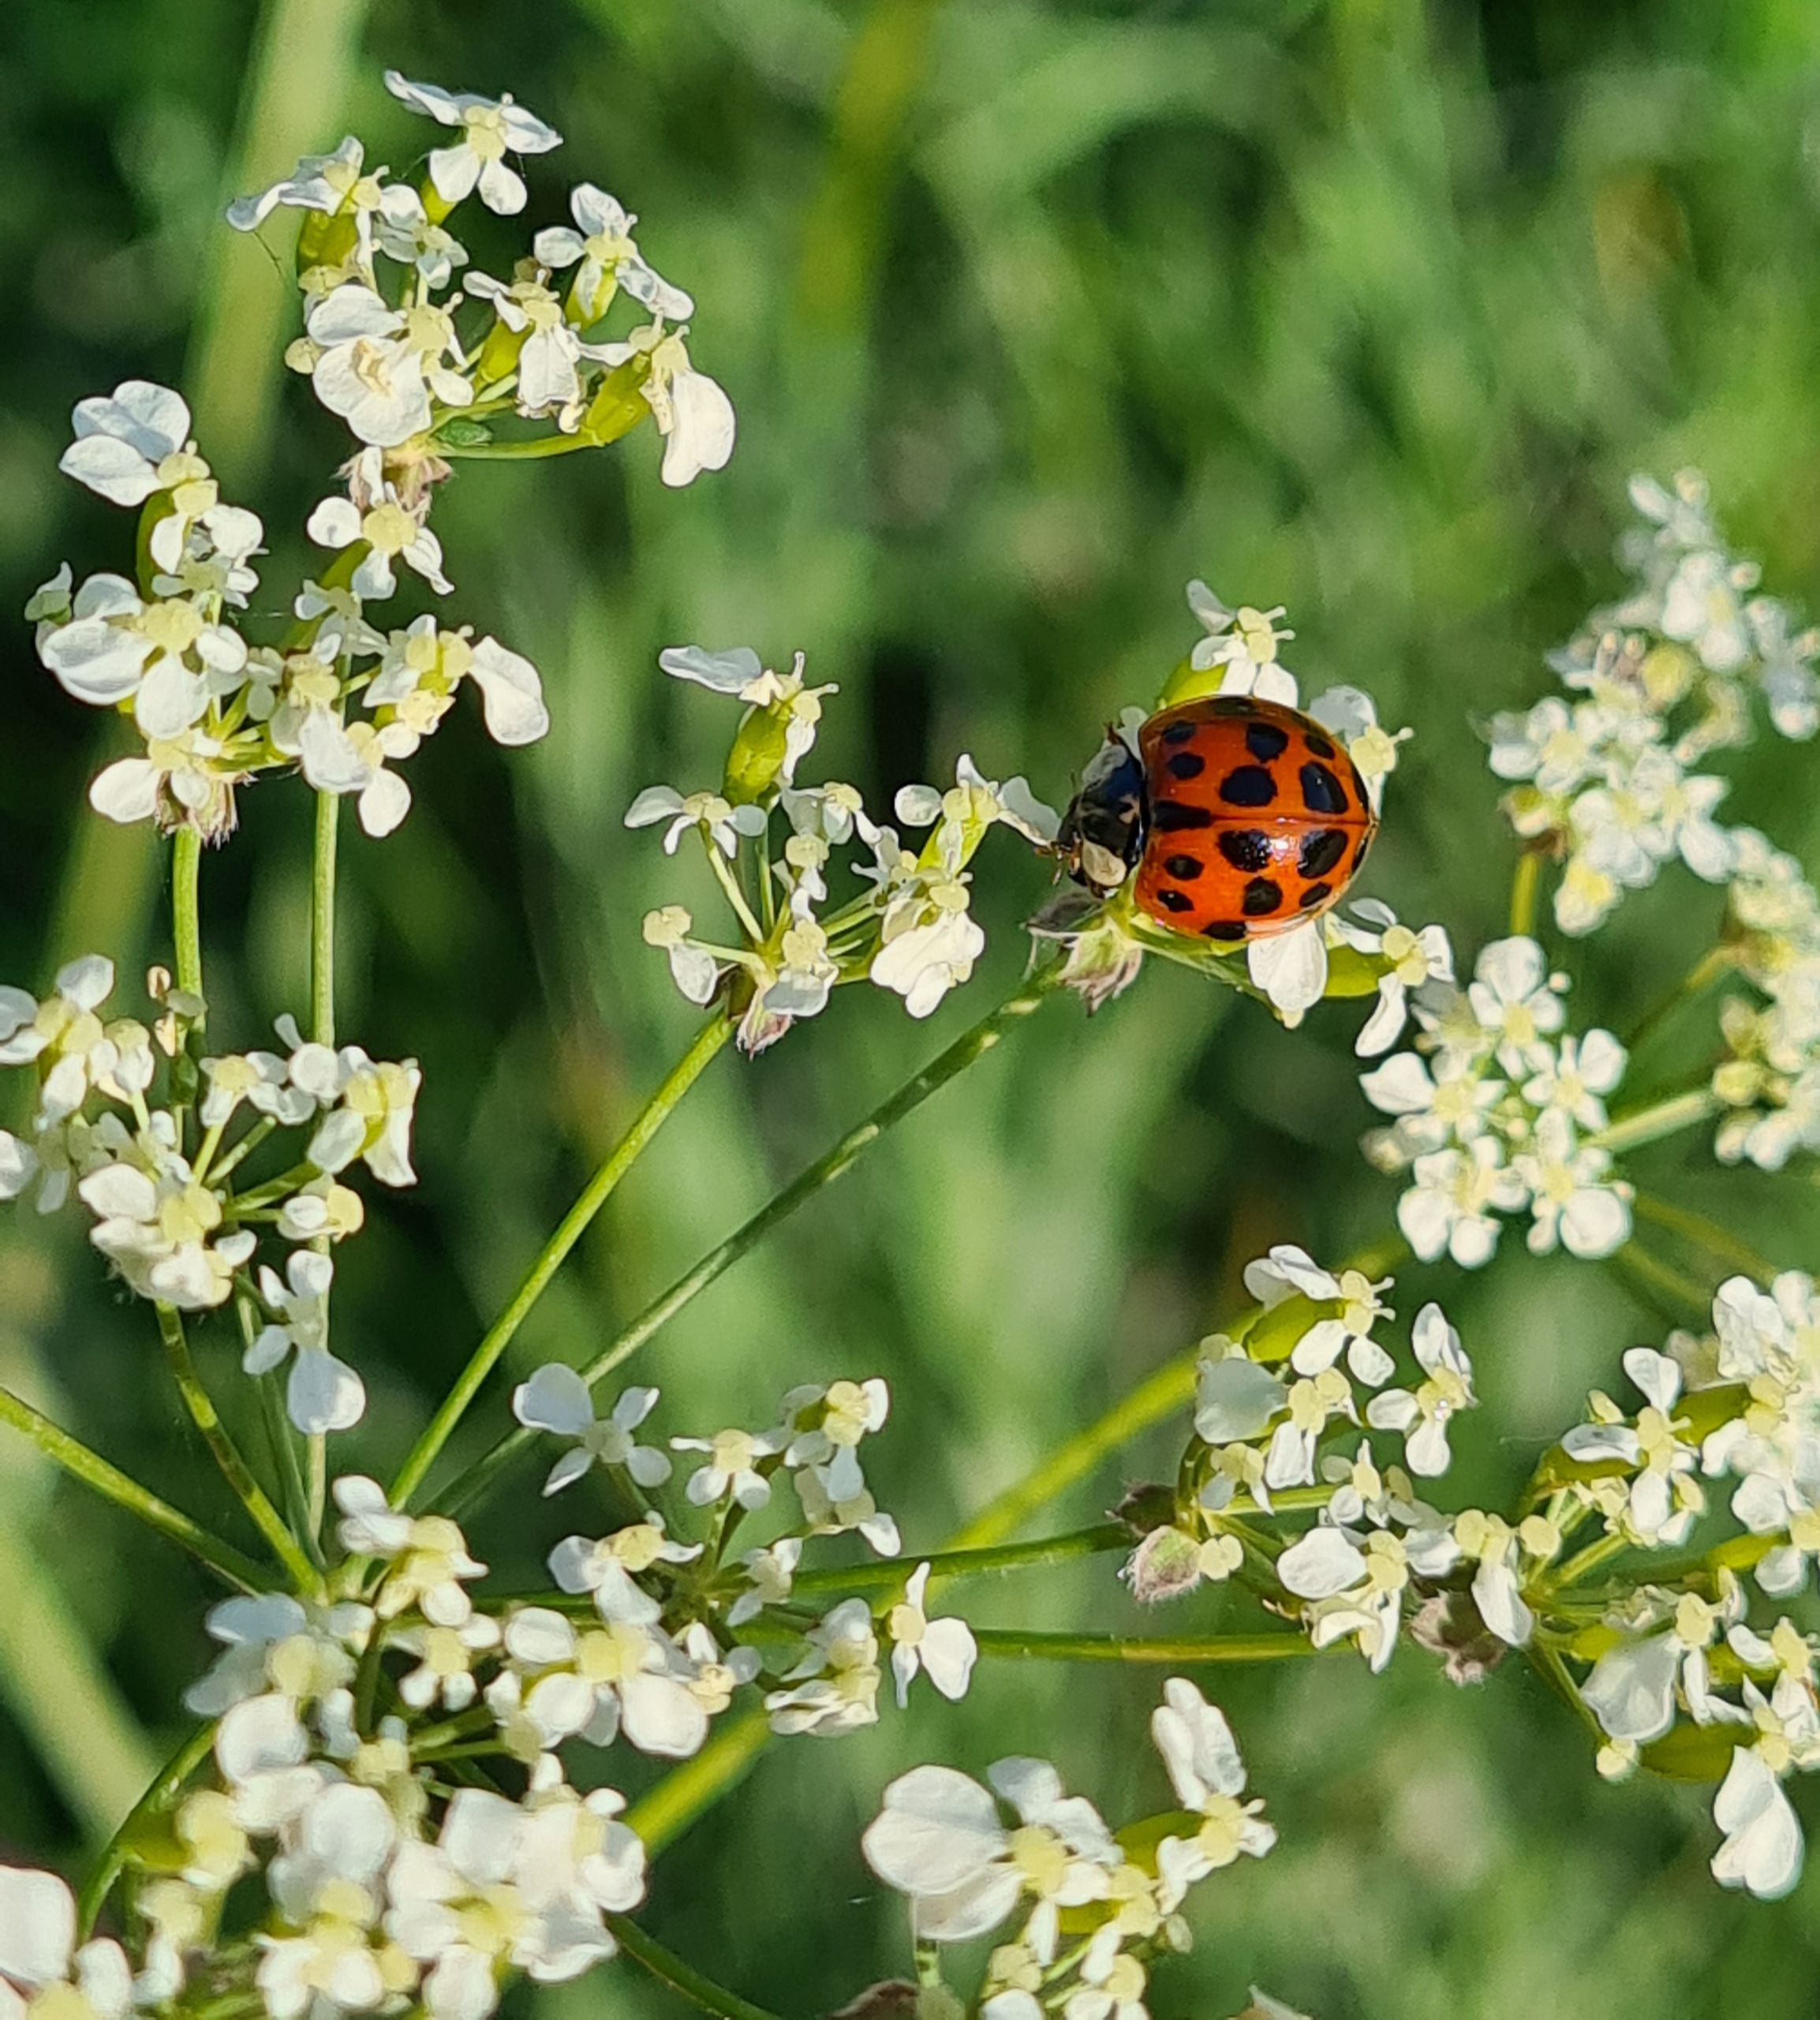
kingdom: Animalia
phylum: Arthropoda
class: Insecta
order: Coleoptera
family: Coccinellidae
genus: Harmonia
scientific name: Harmonia axyridis
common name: Harlekinmariehøne
